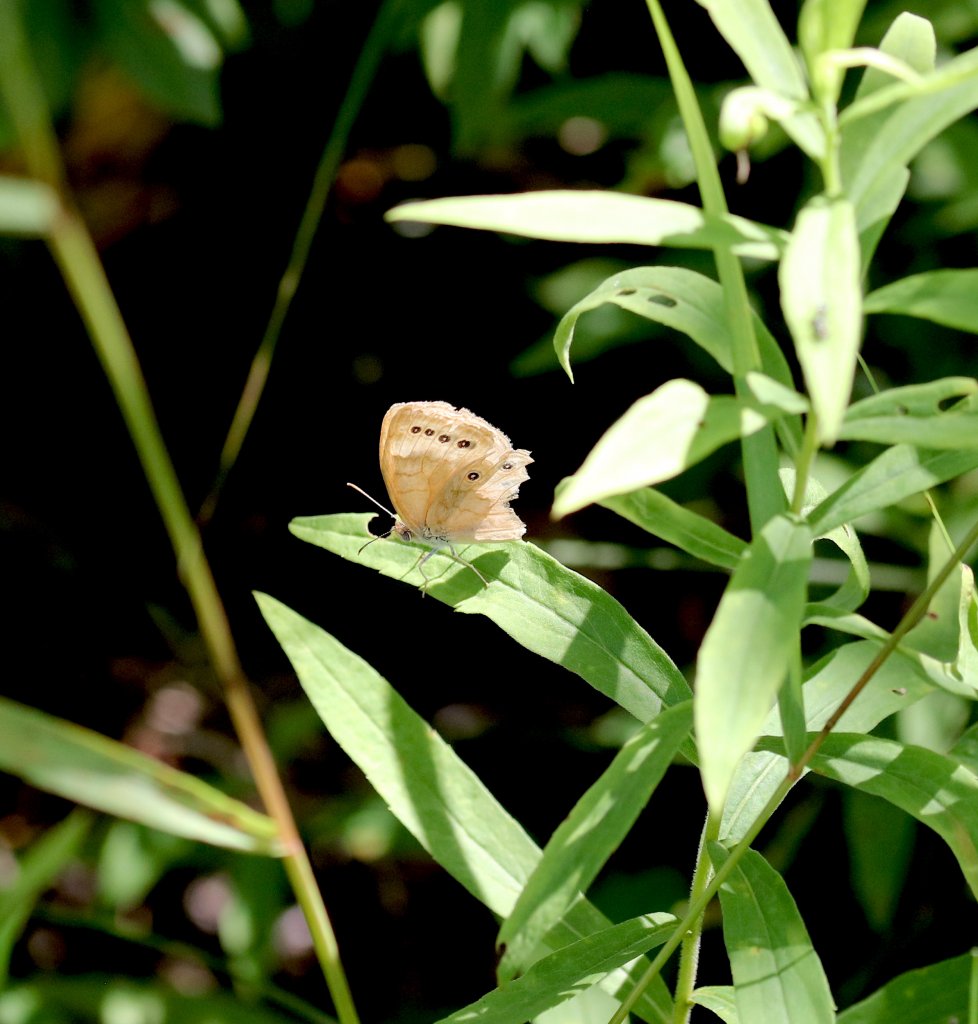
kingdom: Animalia
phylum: Arthropoda
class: Insecta
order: Lepidoptera
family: Nymphalidae
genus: Lethe
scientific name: Lethe eurydice
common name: Eyed Brown
